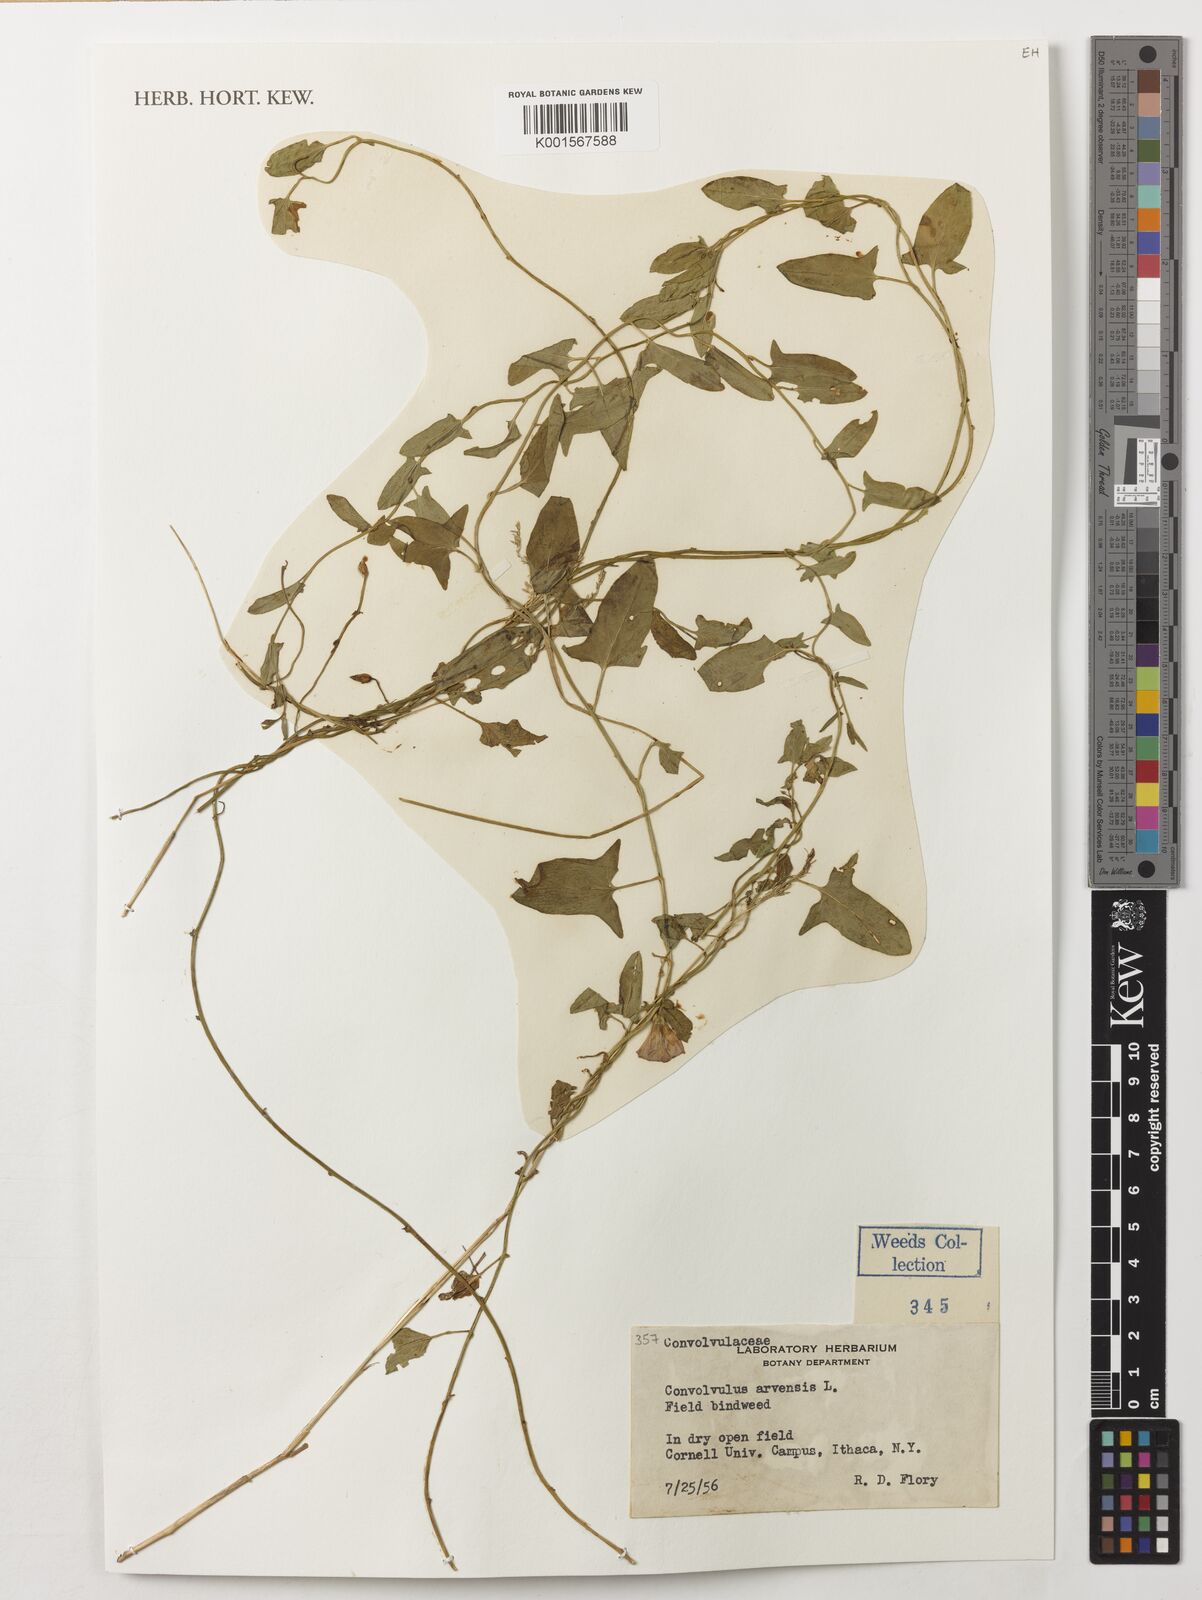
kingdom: Plantae
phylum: Tracheophyta
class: Magnoliopsida
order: Solanales
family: Convolvulaceae
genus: Convolvulus
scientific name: Convolvulus arvensis
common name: Field bindweed
